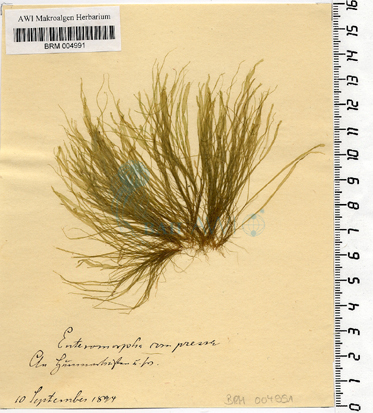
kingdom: Plantae
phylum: Chlorophyta
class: Ulvophyceae
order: Ulvales
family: Ulvaceae
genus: Ulva
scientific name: Ulva compressa
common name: Thread weed
